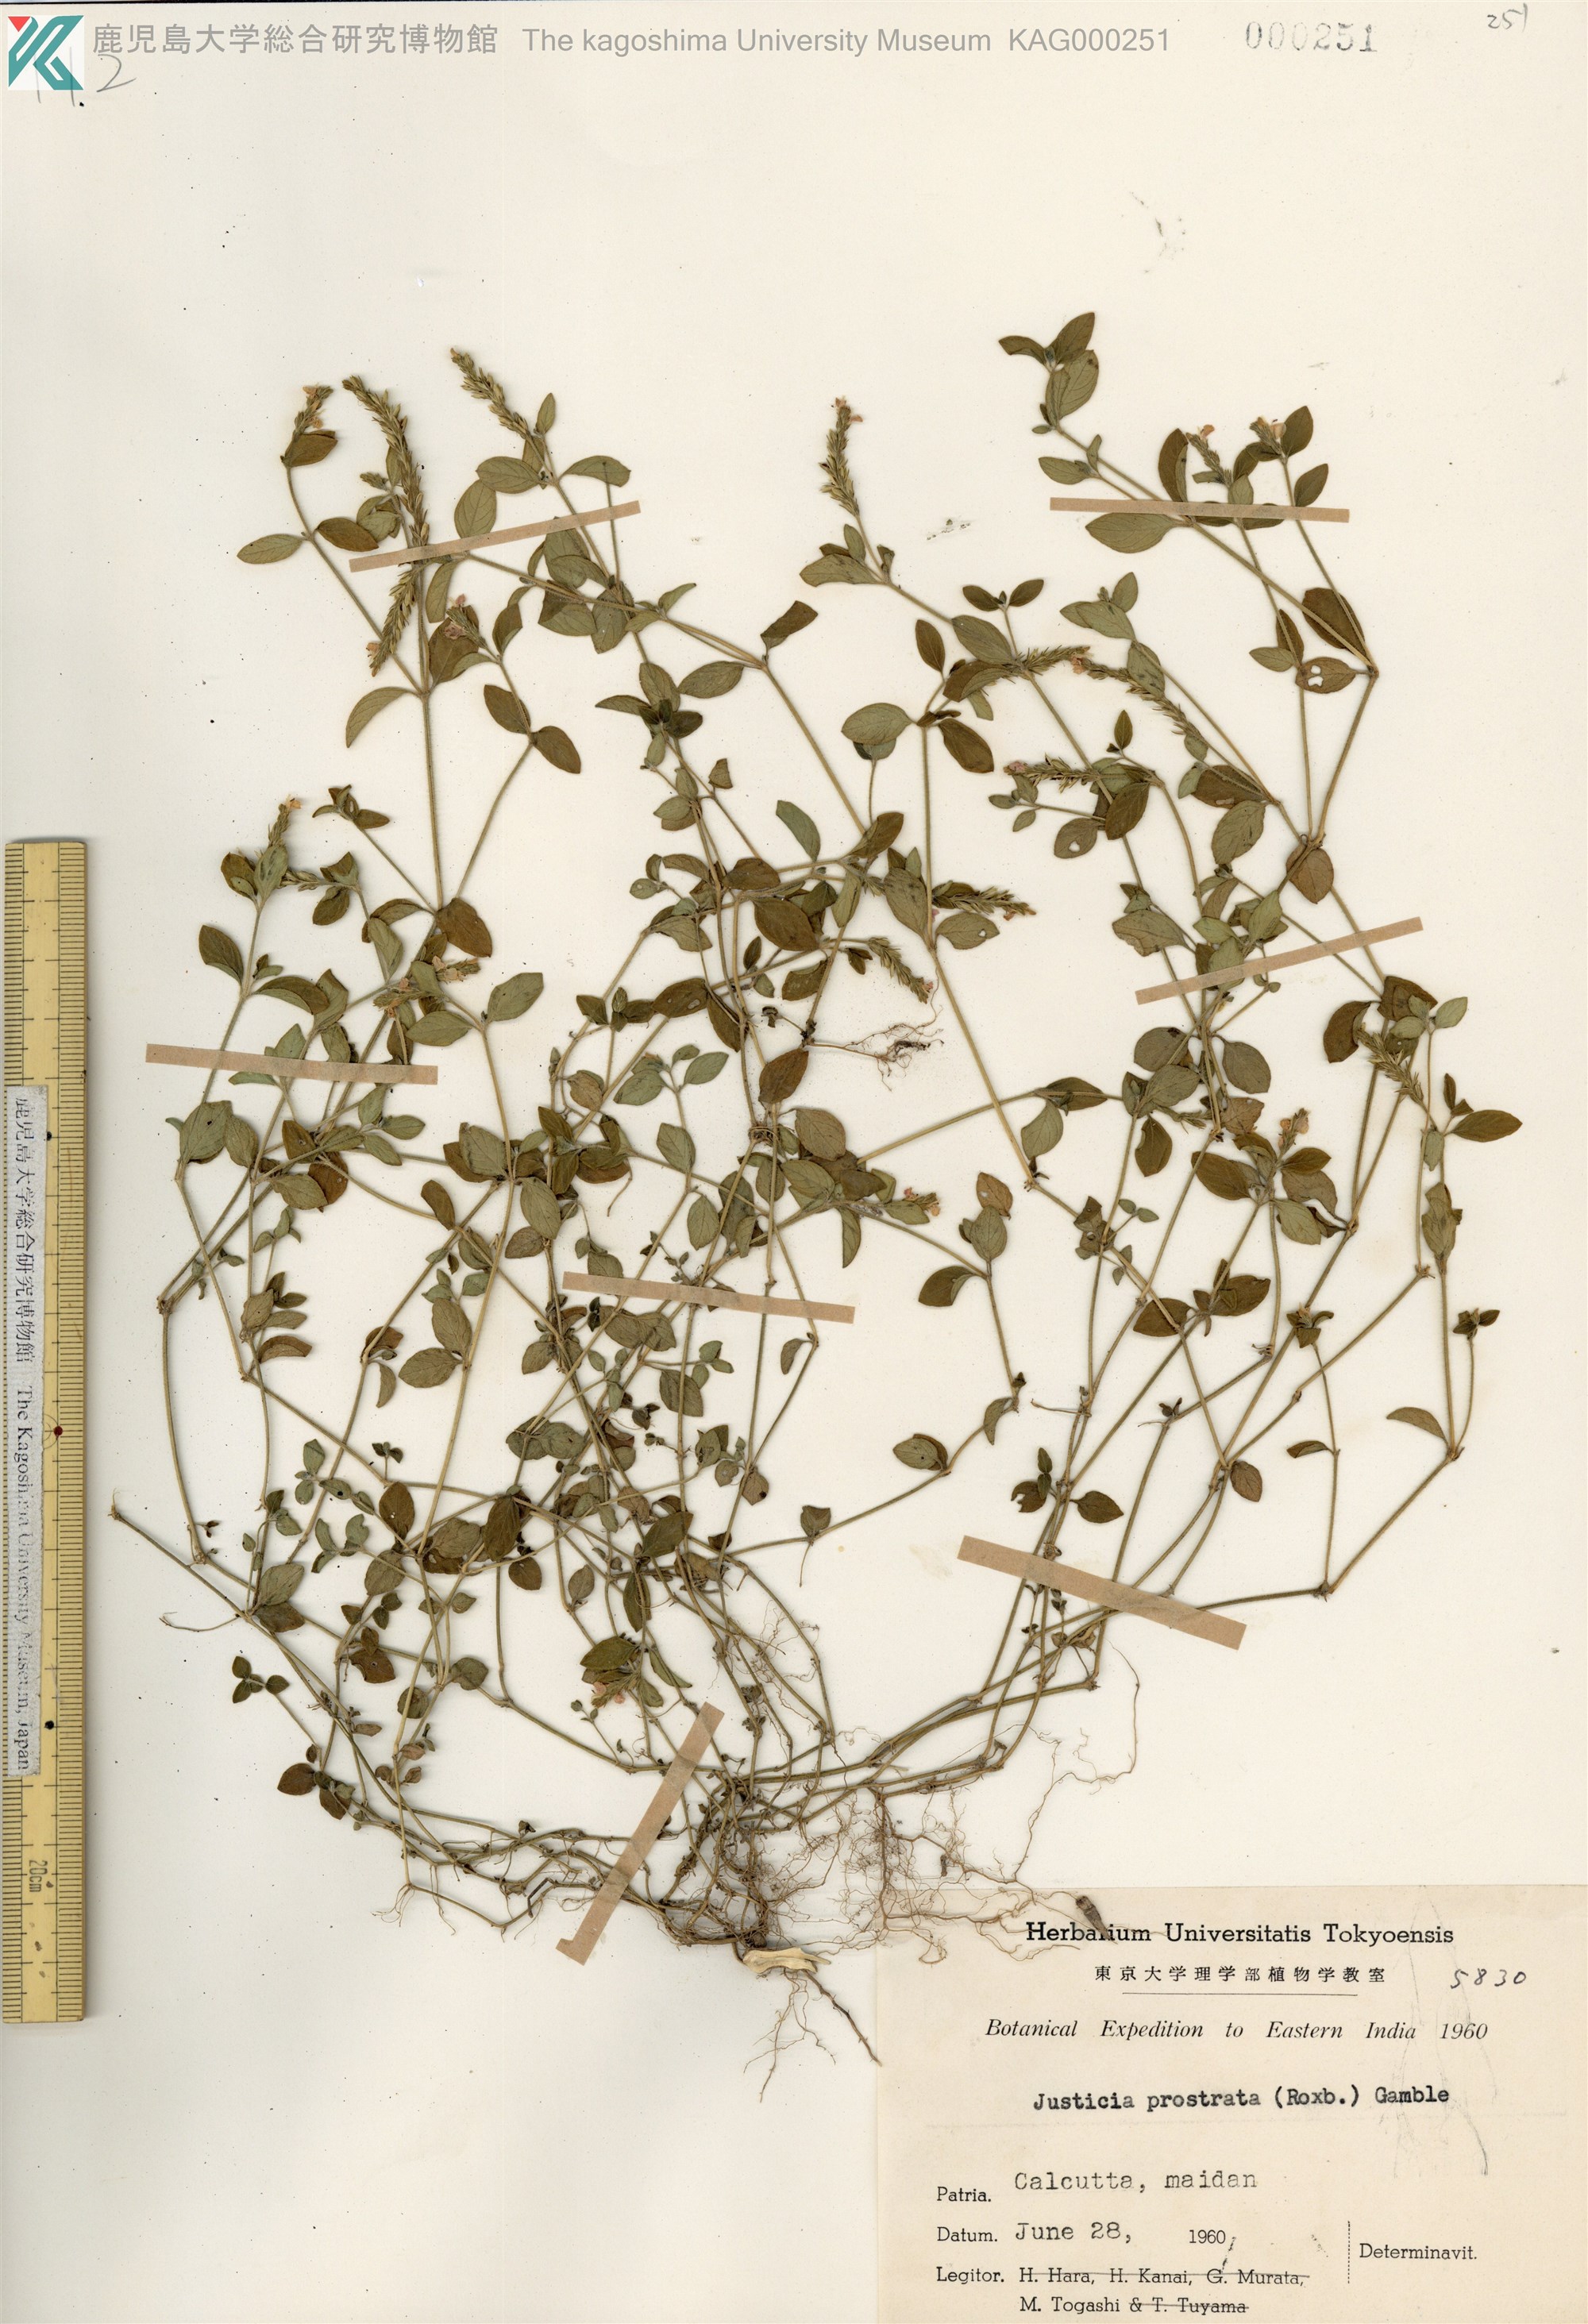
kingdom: Plantae
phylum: Tracheophyta
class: Magnoliopsida
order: Lamiales
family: Acanthaceae
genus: Rostellularia
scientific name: Rostellularia prostrata
